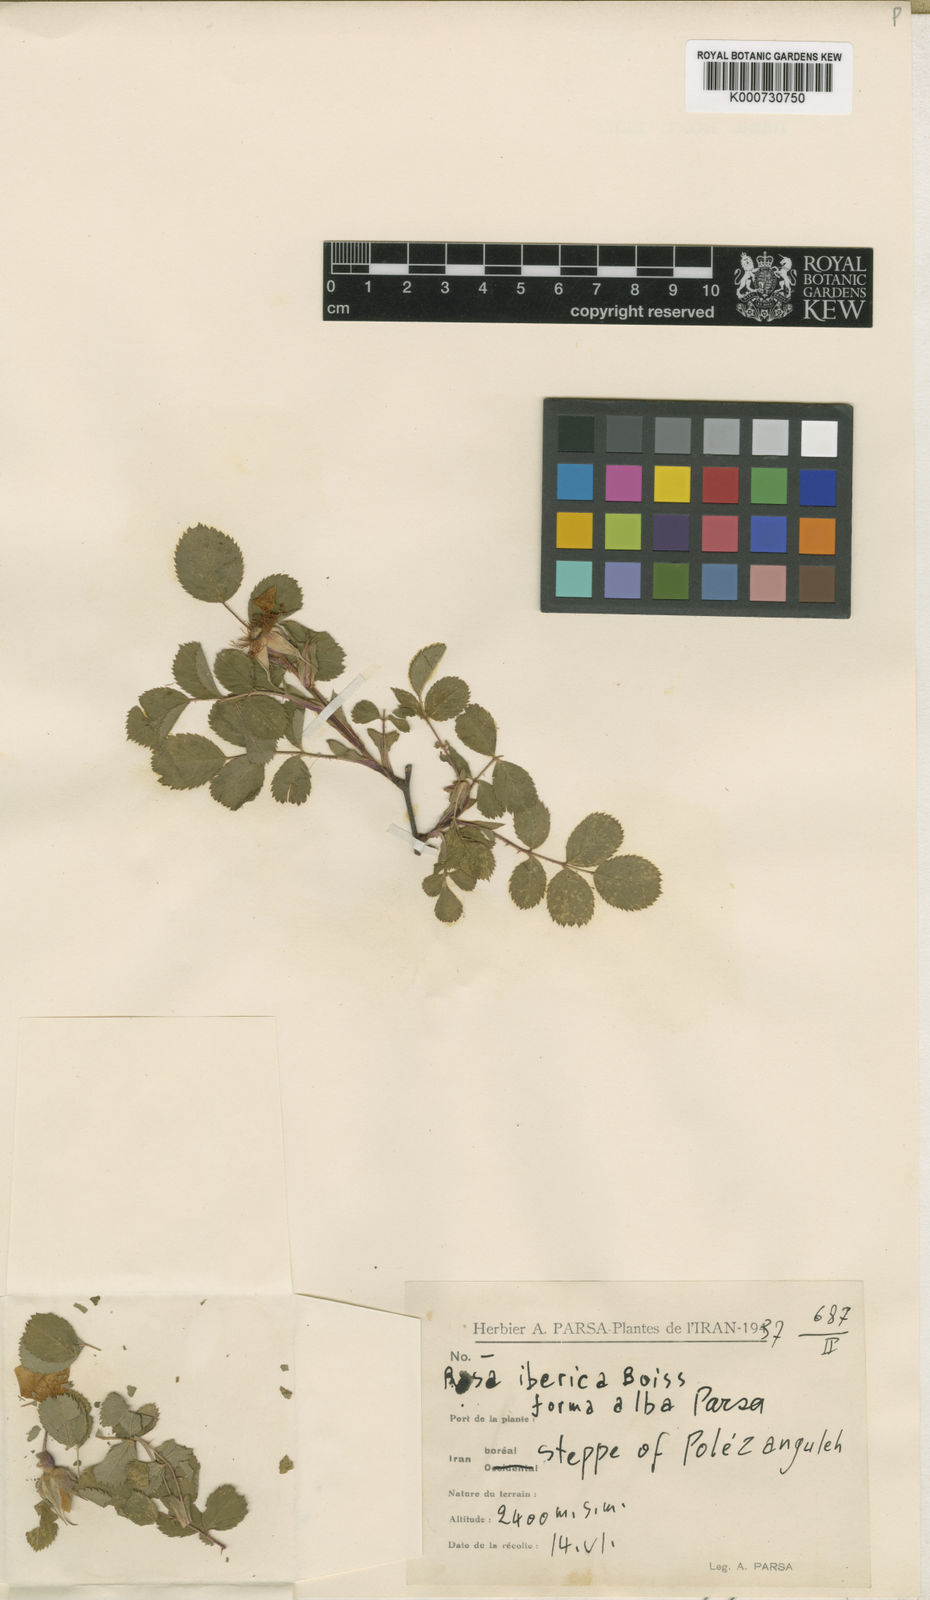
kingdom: Plantae
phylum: Tracheophyta
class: Magnoliopsida
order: Rosales
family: Rosaceae
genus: Rosa
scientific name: Rosa
